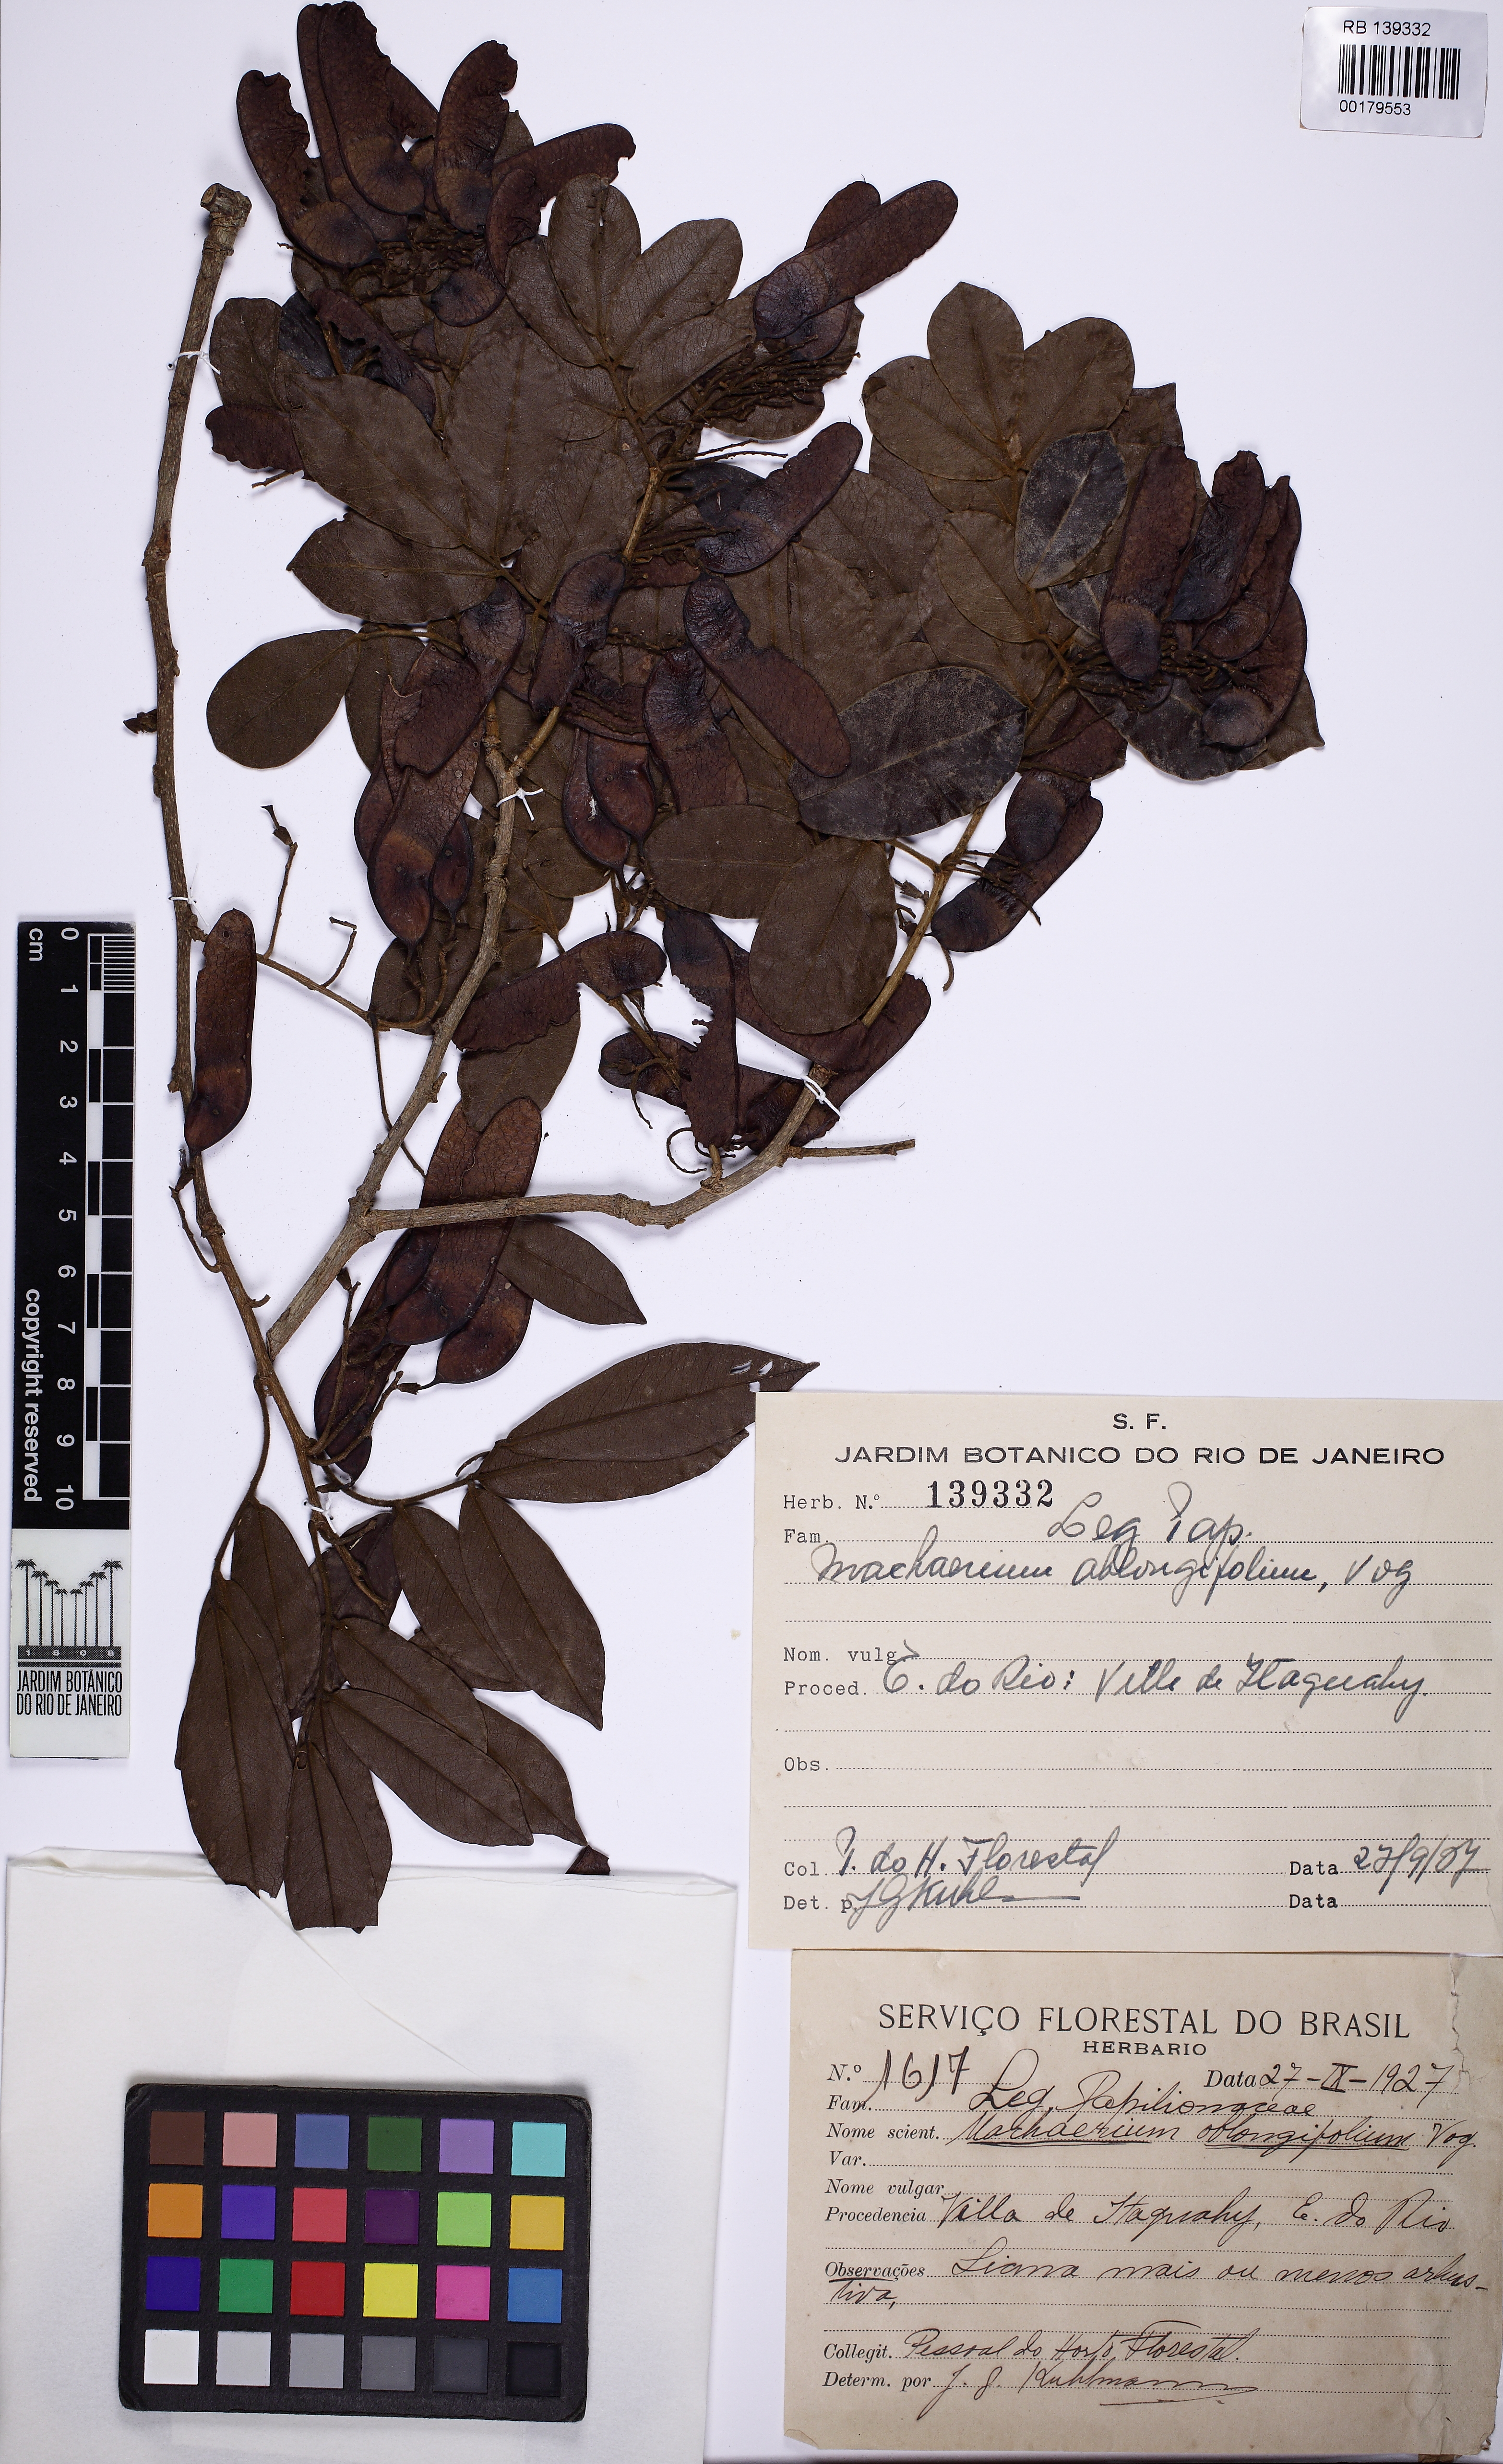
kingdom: Plantae
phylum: Tracheophyta
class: Magnoliopsida
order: Fabales
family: Fabaceae
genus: Machaerium
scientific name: Machaerium oblongifolium
